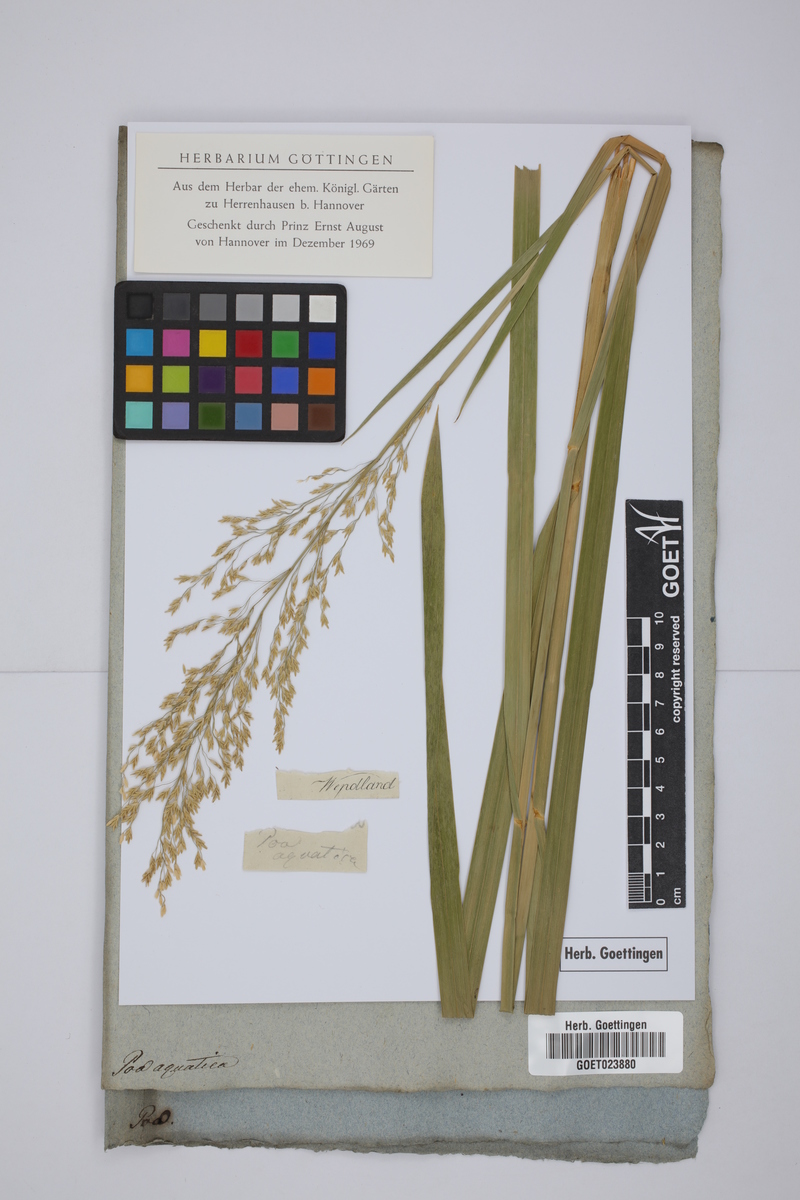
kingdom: Plantae
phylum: Tracheophyta
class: Liliopsida
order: Poales
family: Poaceae
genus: Glyceria
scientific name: Glyceria maxima
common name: Reed mannagrass
